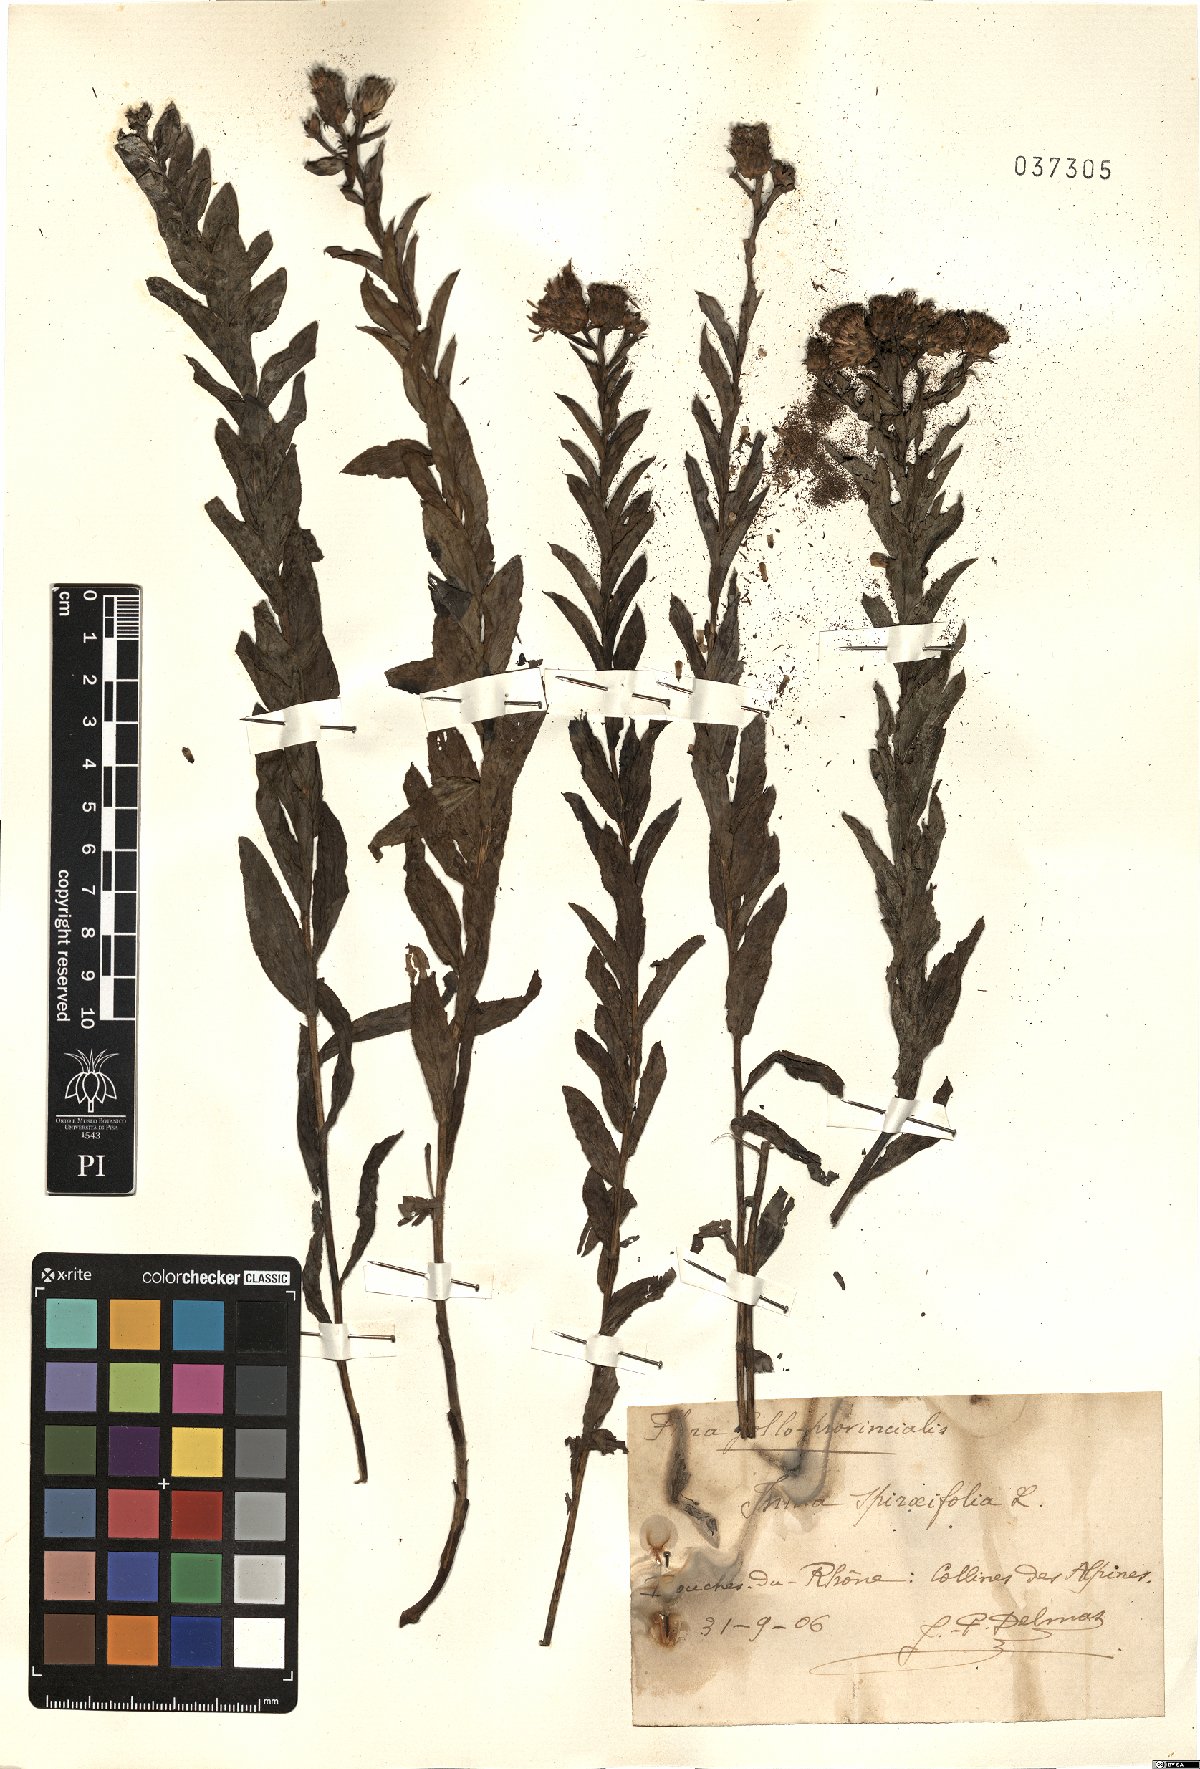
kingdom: Plantae
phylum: Tracheophyta
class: Magnoliopsida
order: Asterales
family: Asteraceae
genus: Pentanema
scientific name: Pentanema spiraeifolium
